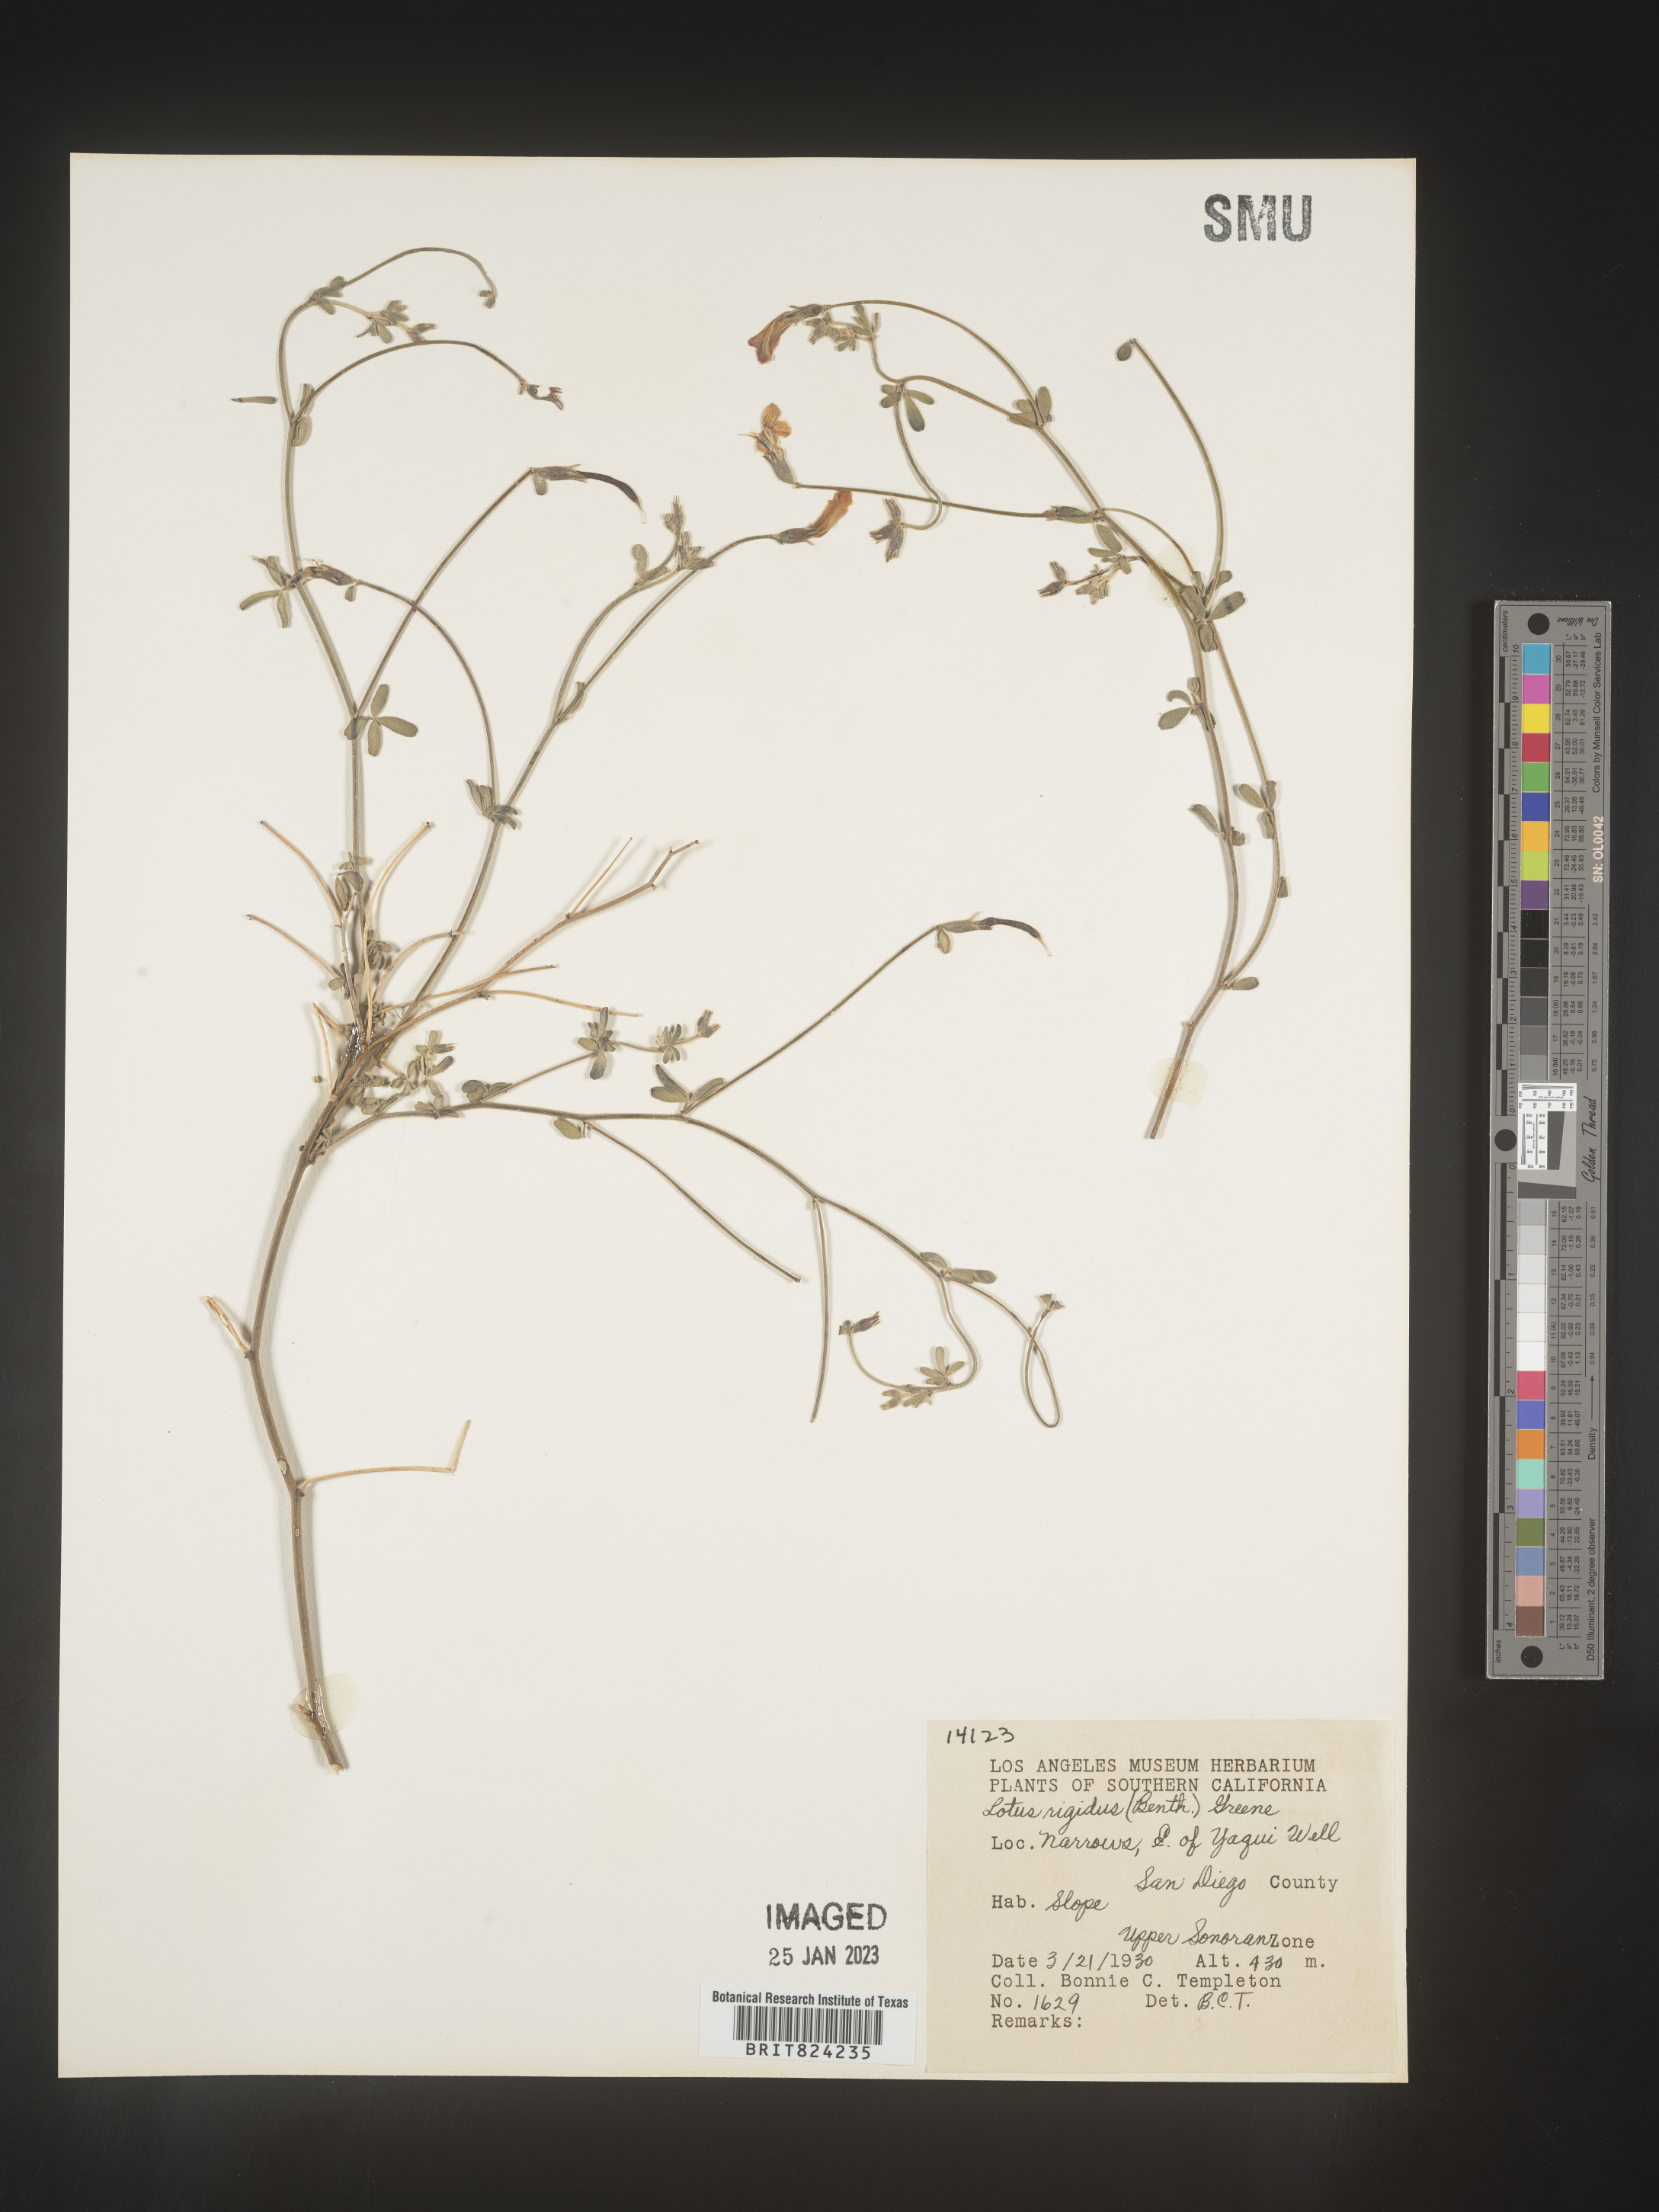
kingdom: Plantae
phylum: Tracheophyta
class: Magnoliopsida
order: Fabales
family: Fabaceae
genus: Lotus
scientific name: Lotus
